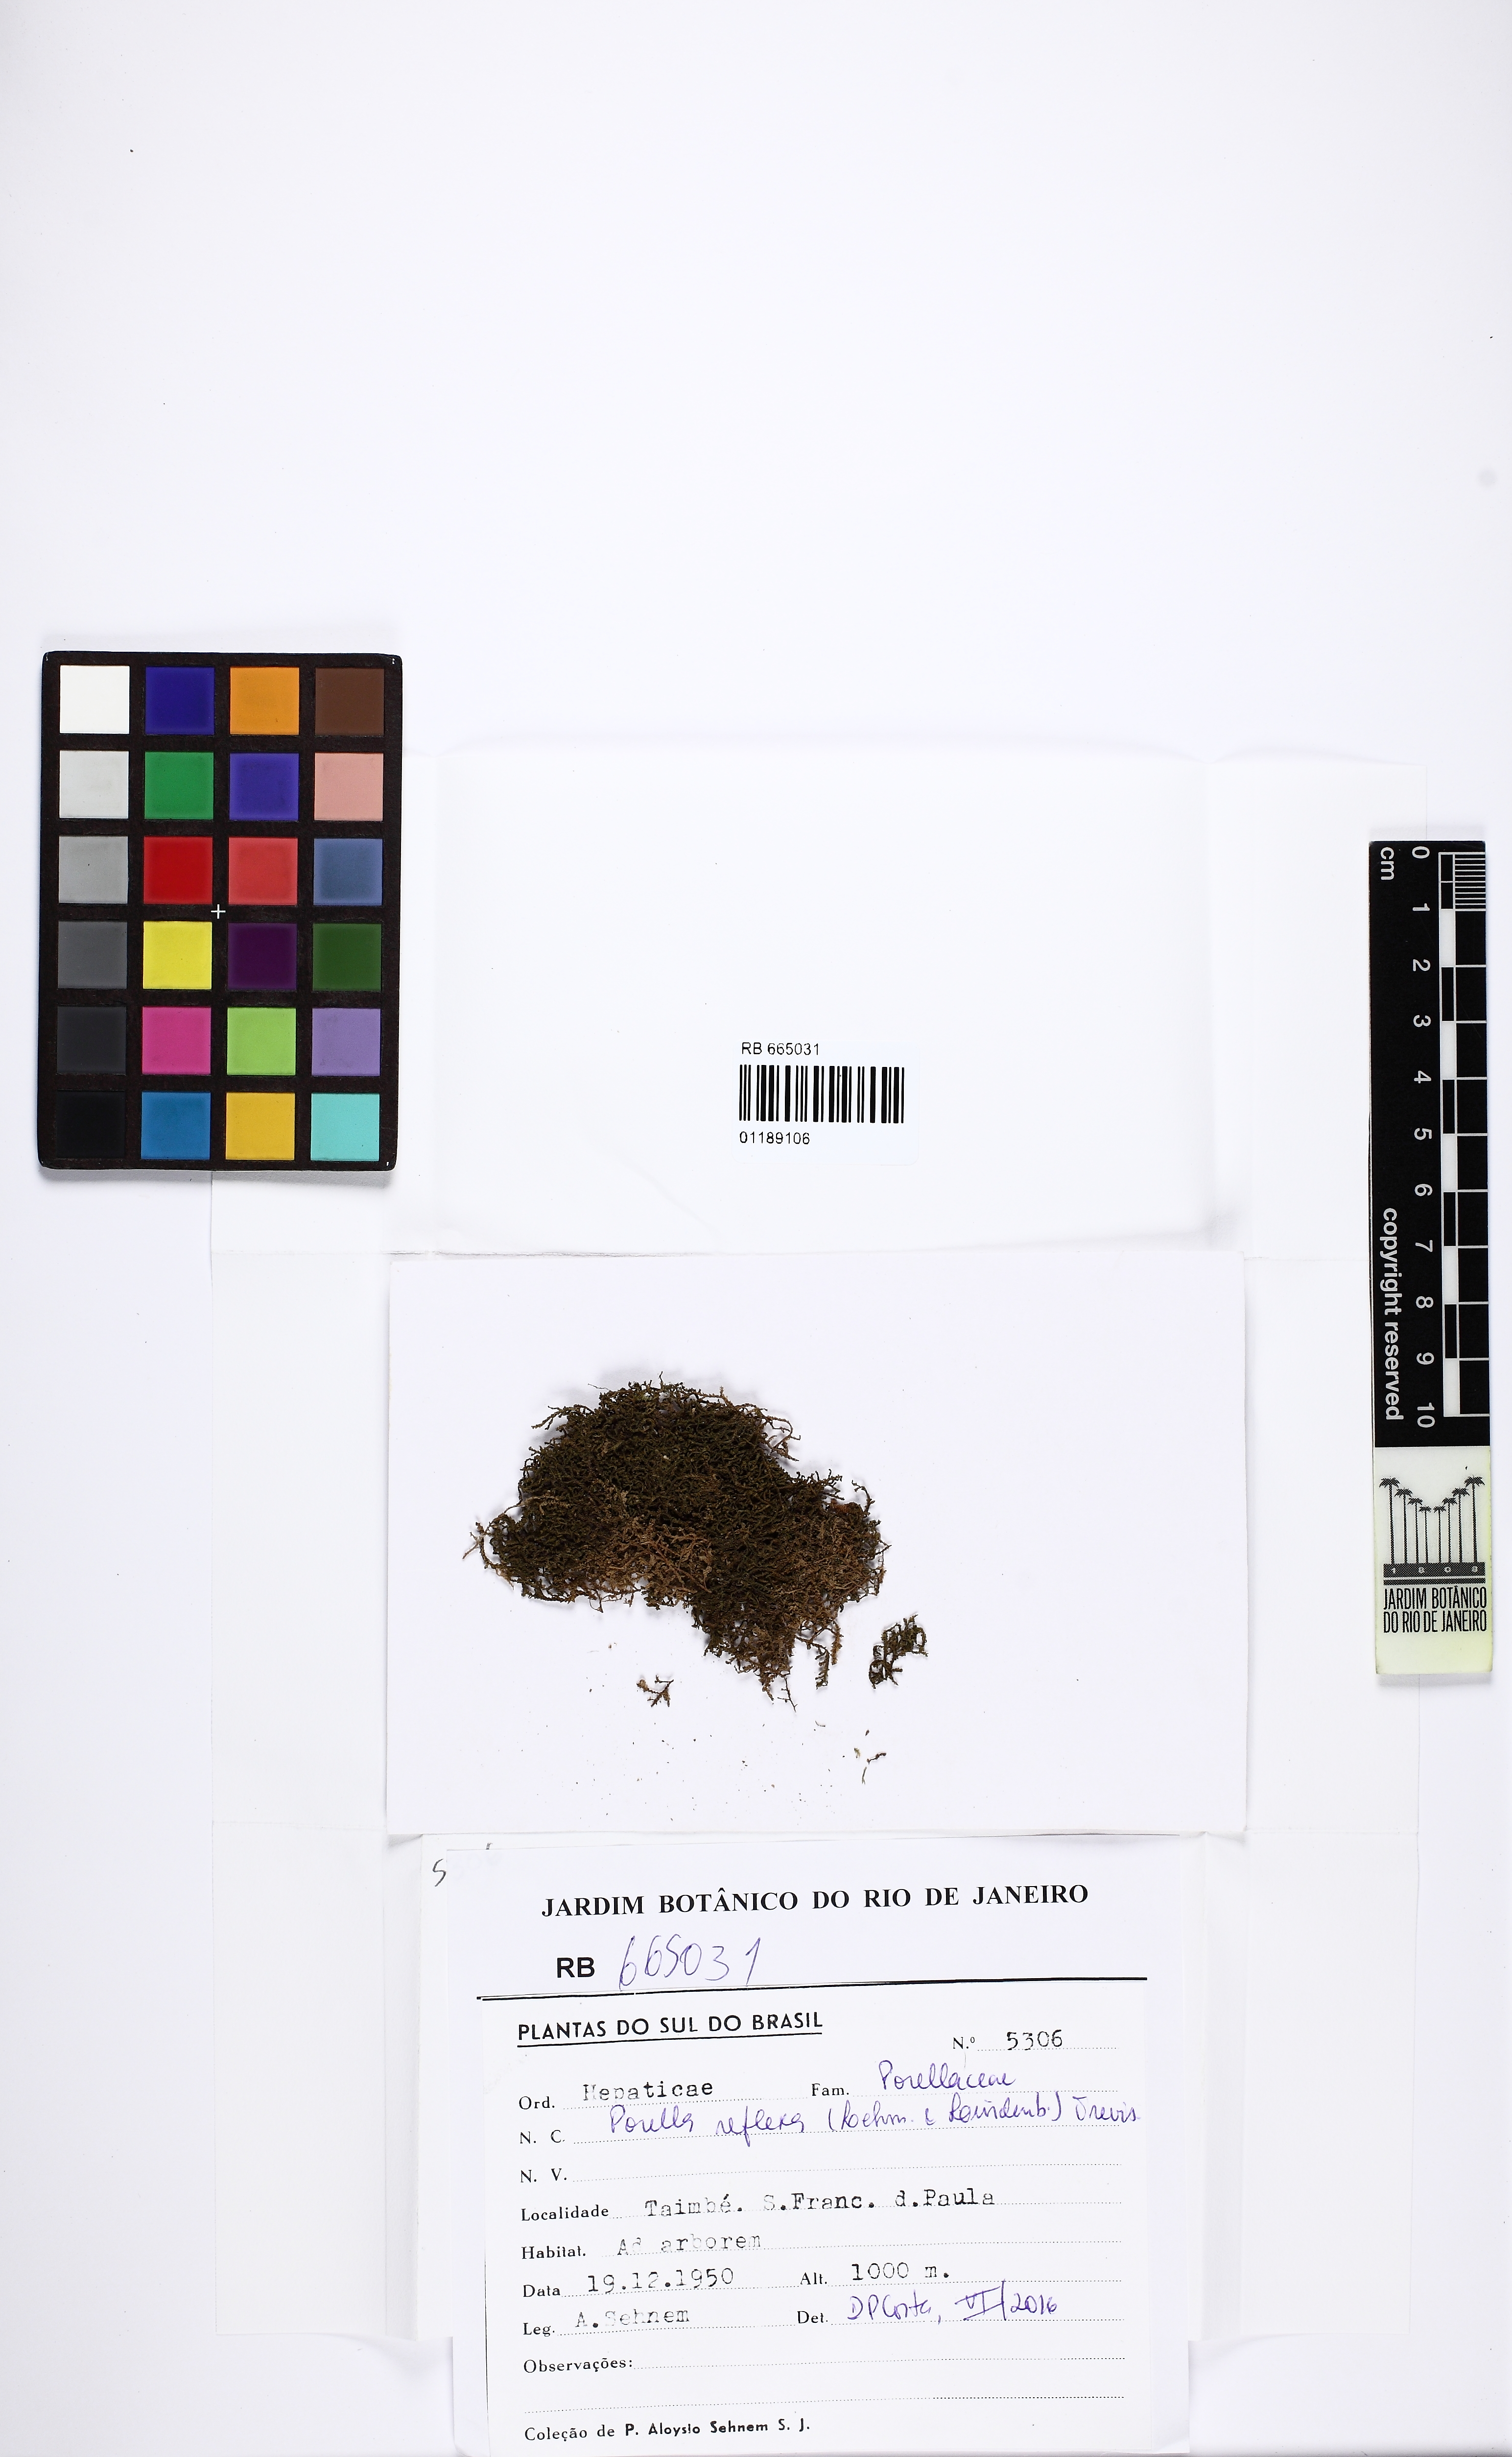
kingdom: Plantae
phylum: Marchantiophyta
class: Jungermanniopsida
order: Porellales
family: Porellaceae
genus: Porella
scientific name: Porella reflexa
